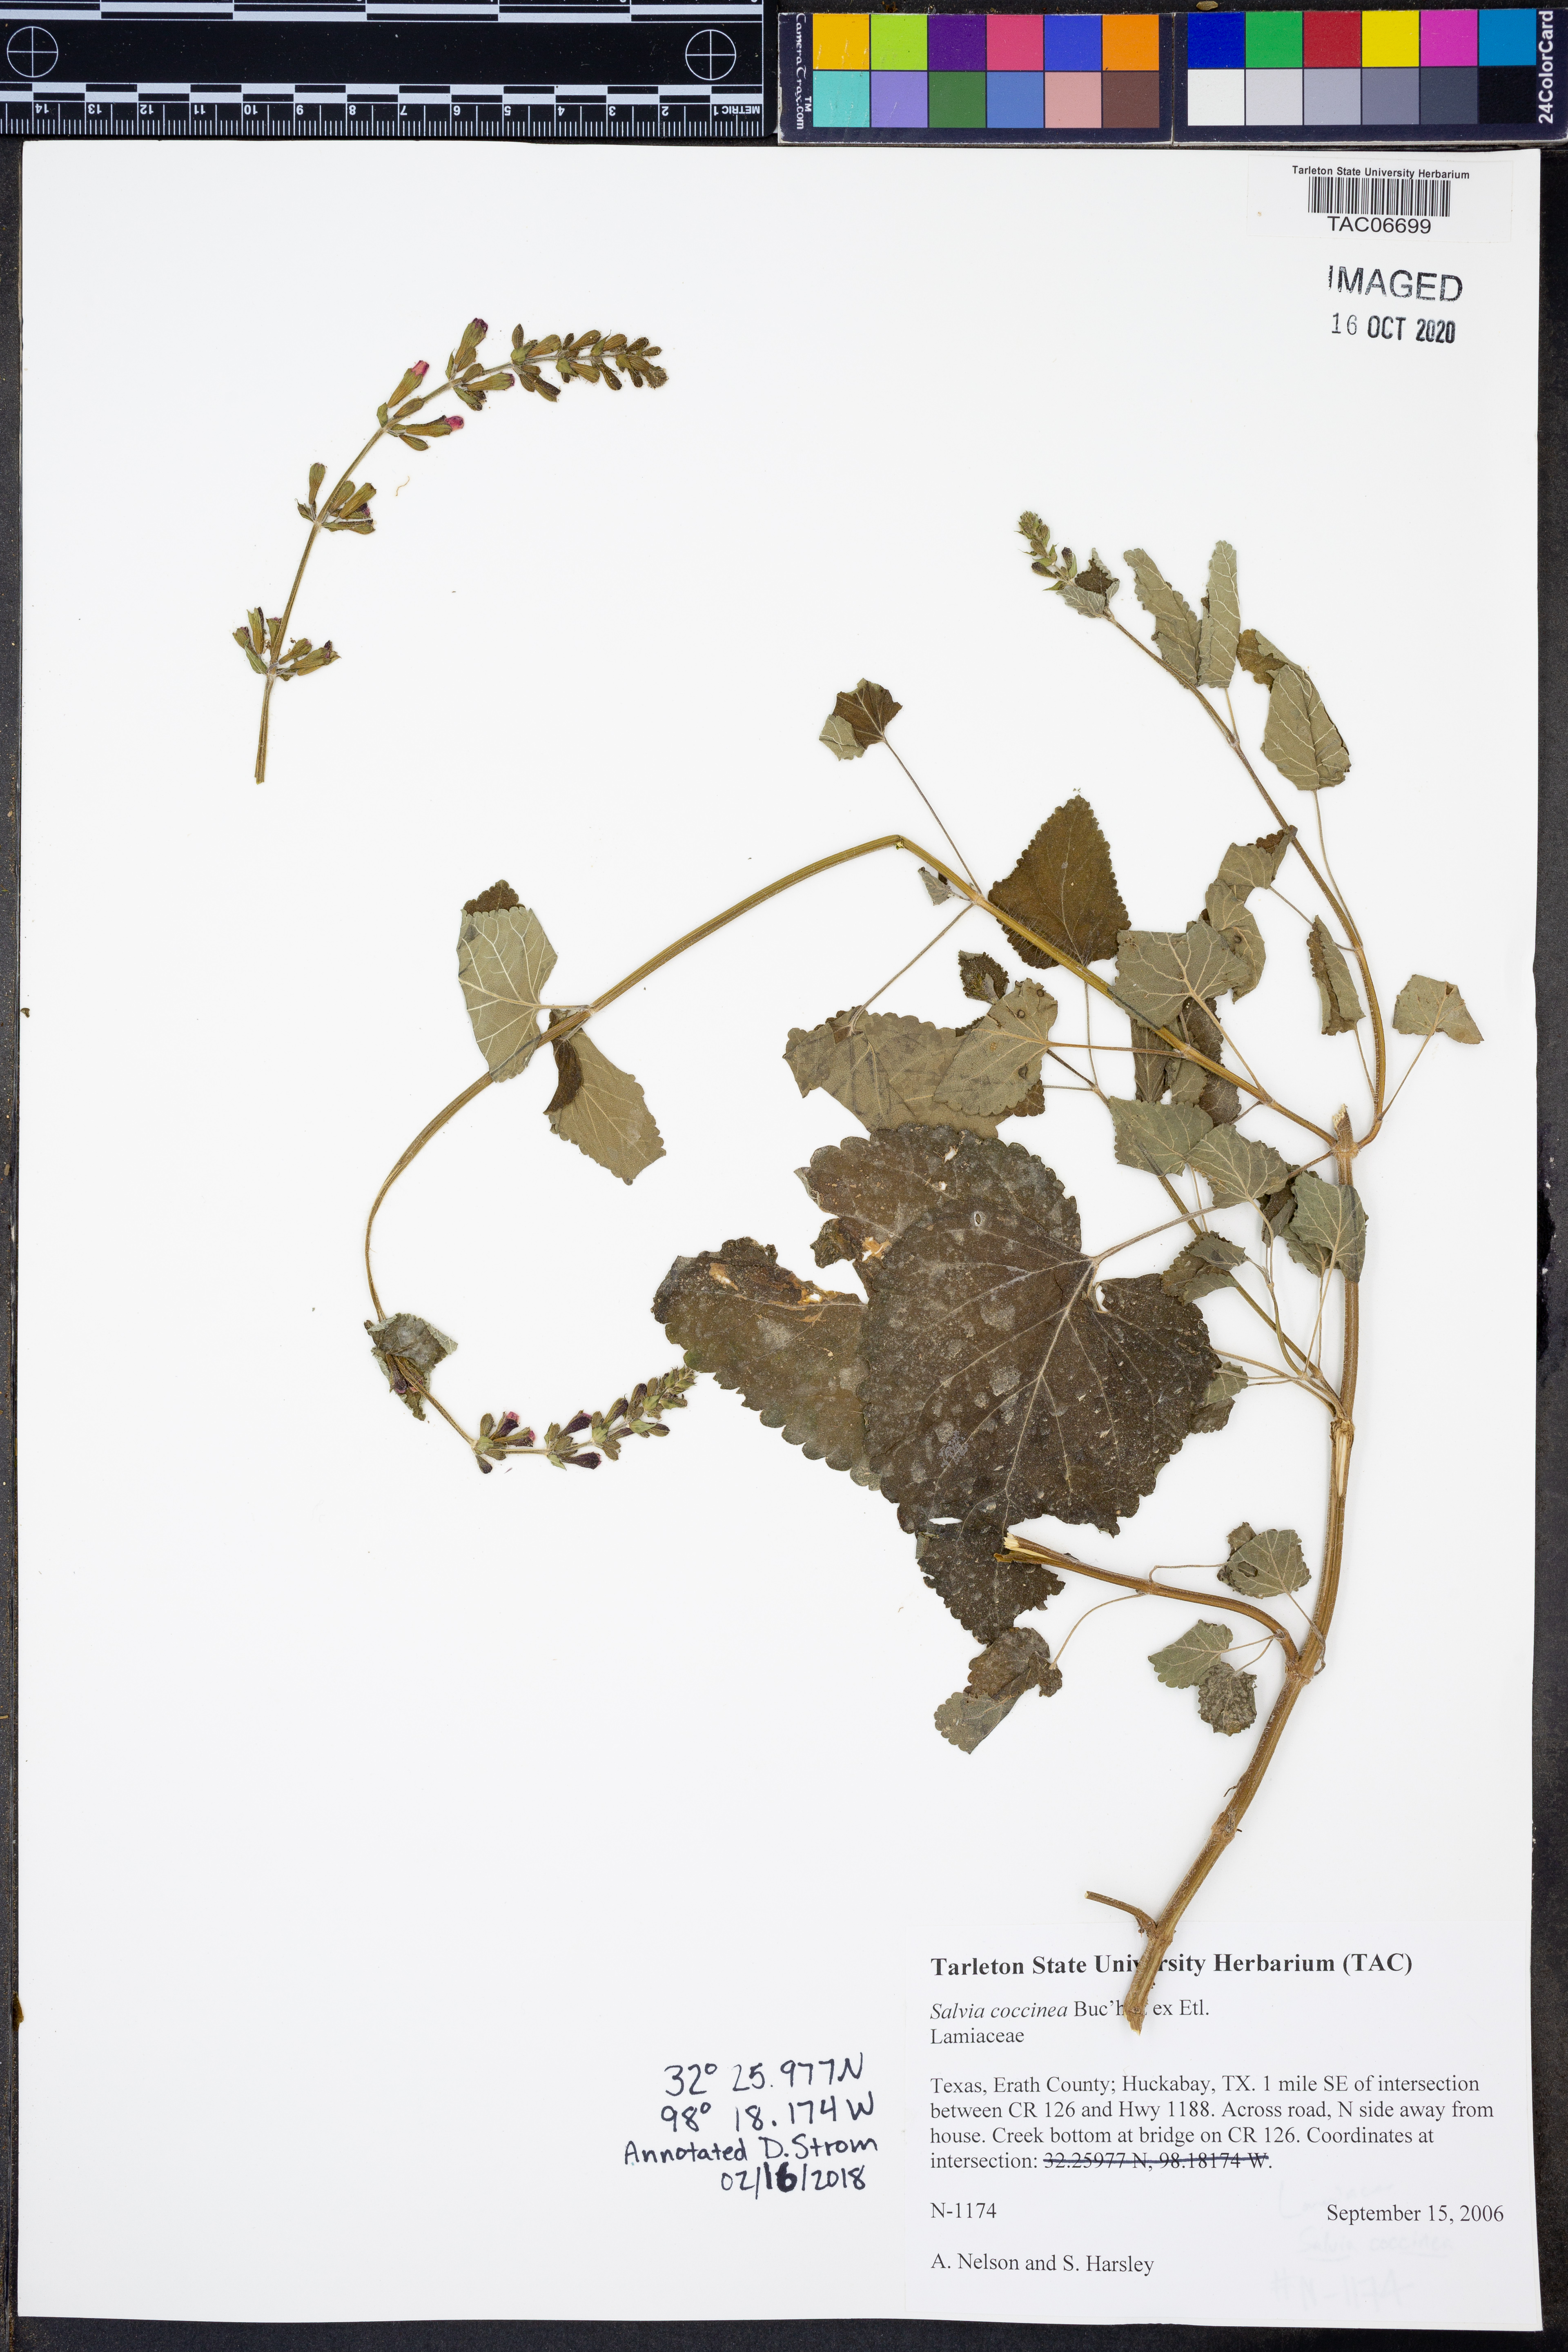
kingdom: Plantae
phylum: Tracheophyta
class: Magnoliopsida
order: Lamiales
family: Lamiaceae
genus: Salvia
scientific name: Salvia coccinea
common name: Blood sage
